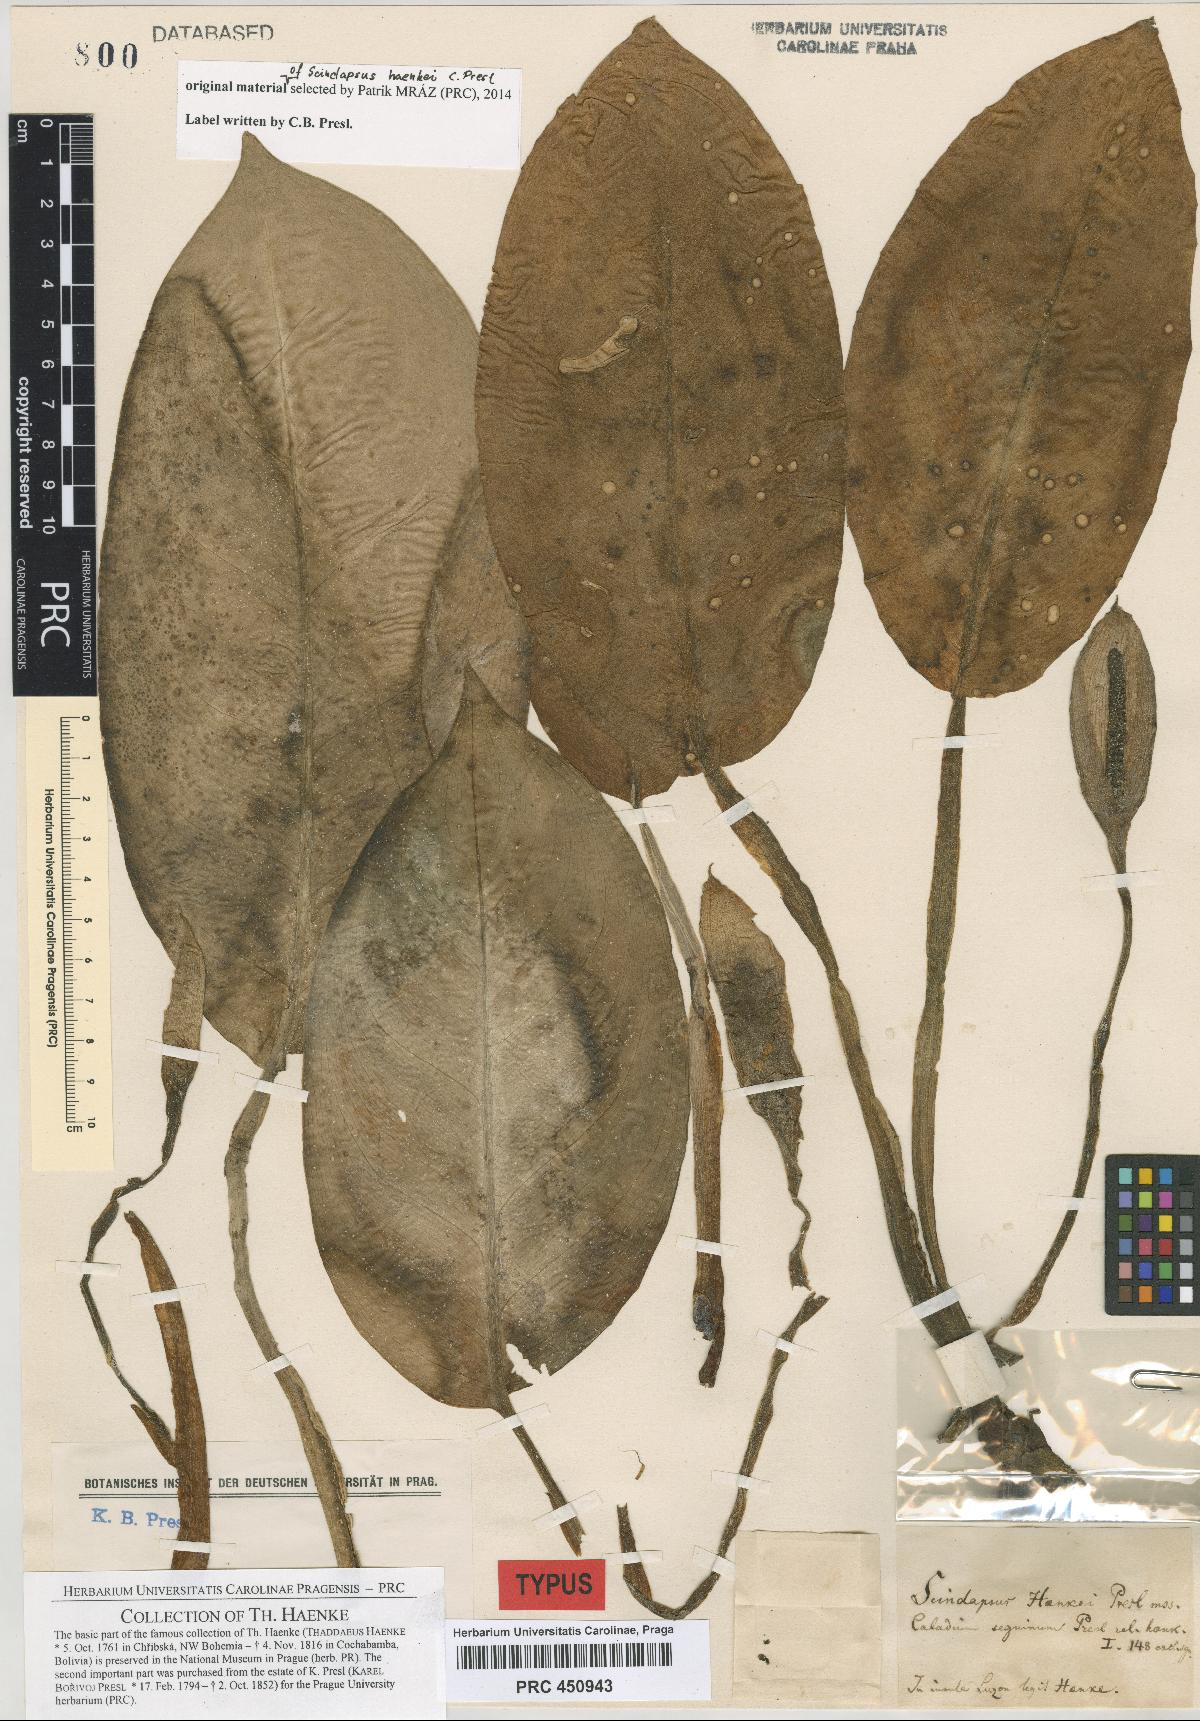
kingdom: Plantae
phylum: Tracheophyta
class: Liliopsida
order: Alismatales
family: Araceae
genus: Scindapsus
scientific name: Scindapsus haenkei
